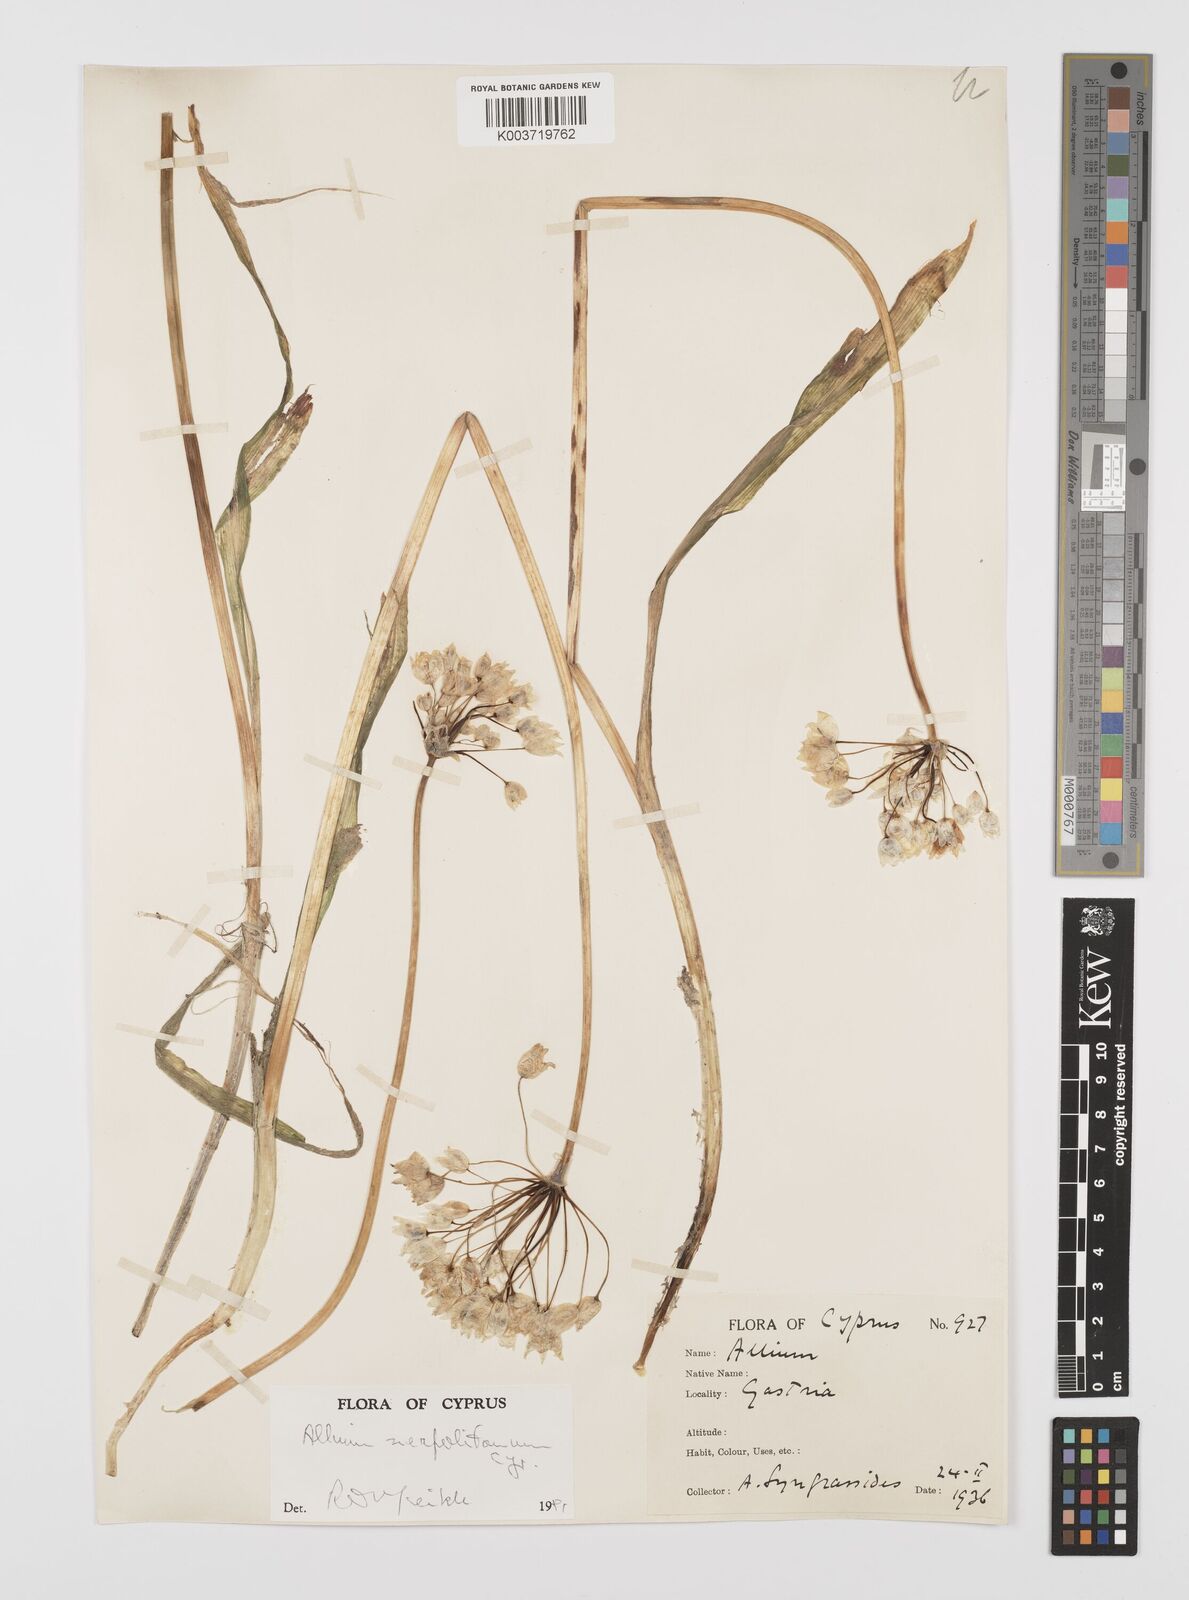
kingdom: Plantae
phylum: Tracheophyta
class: Liliopsida
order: Asparagales
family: Amaryllidaceae
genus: Allium
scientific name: Allium neapolitanum
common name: Neapolitan garlic
